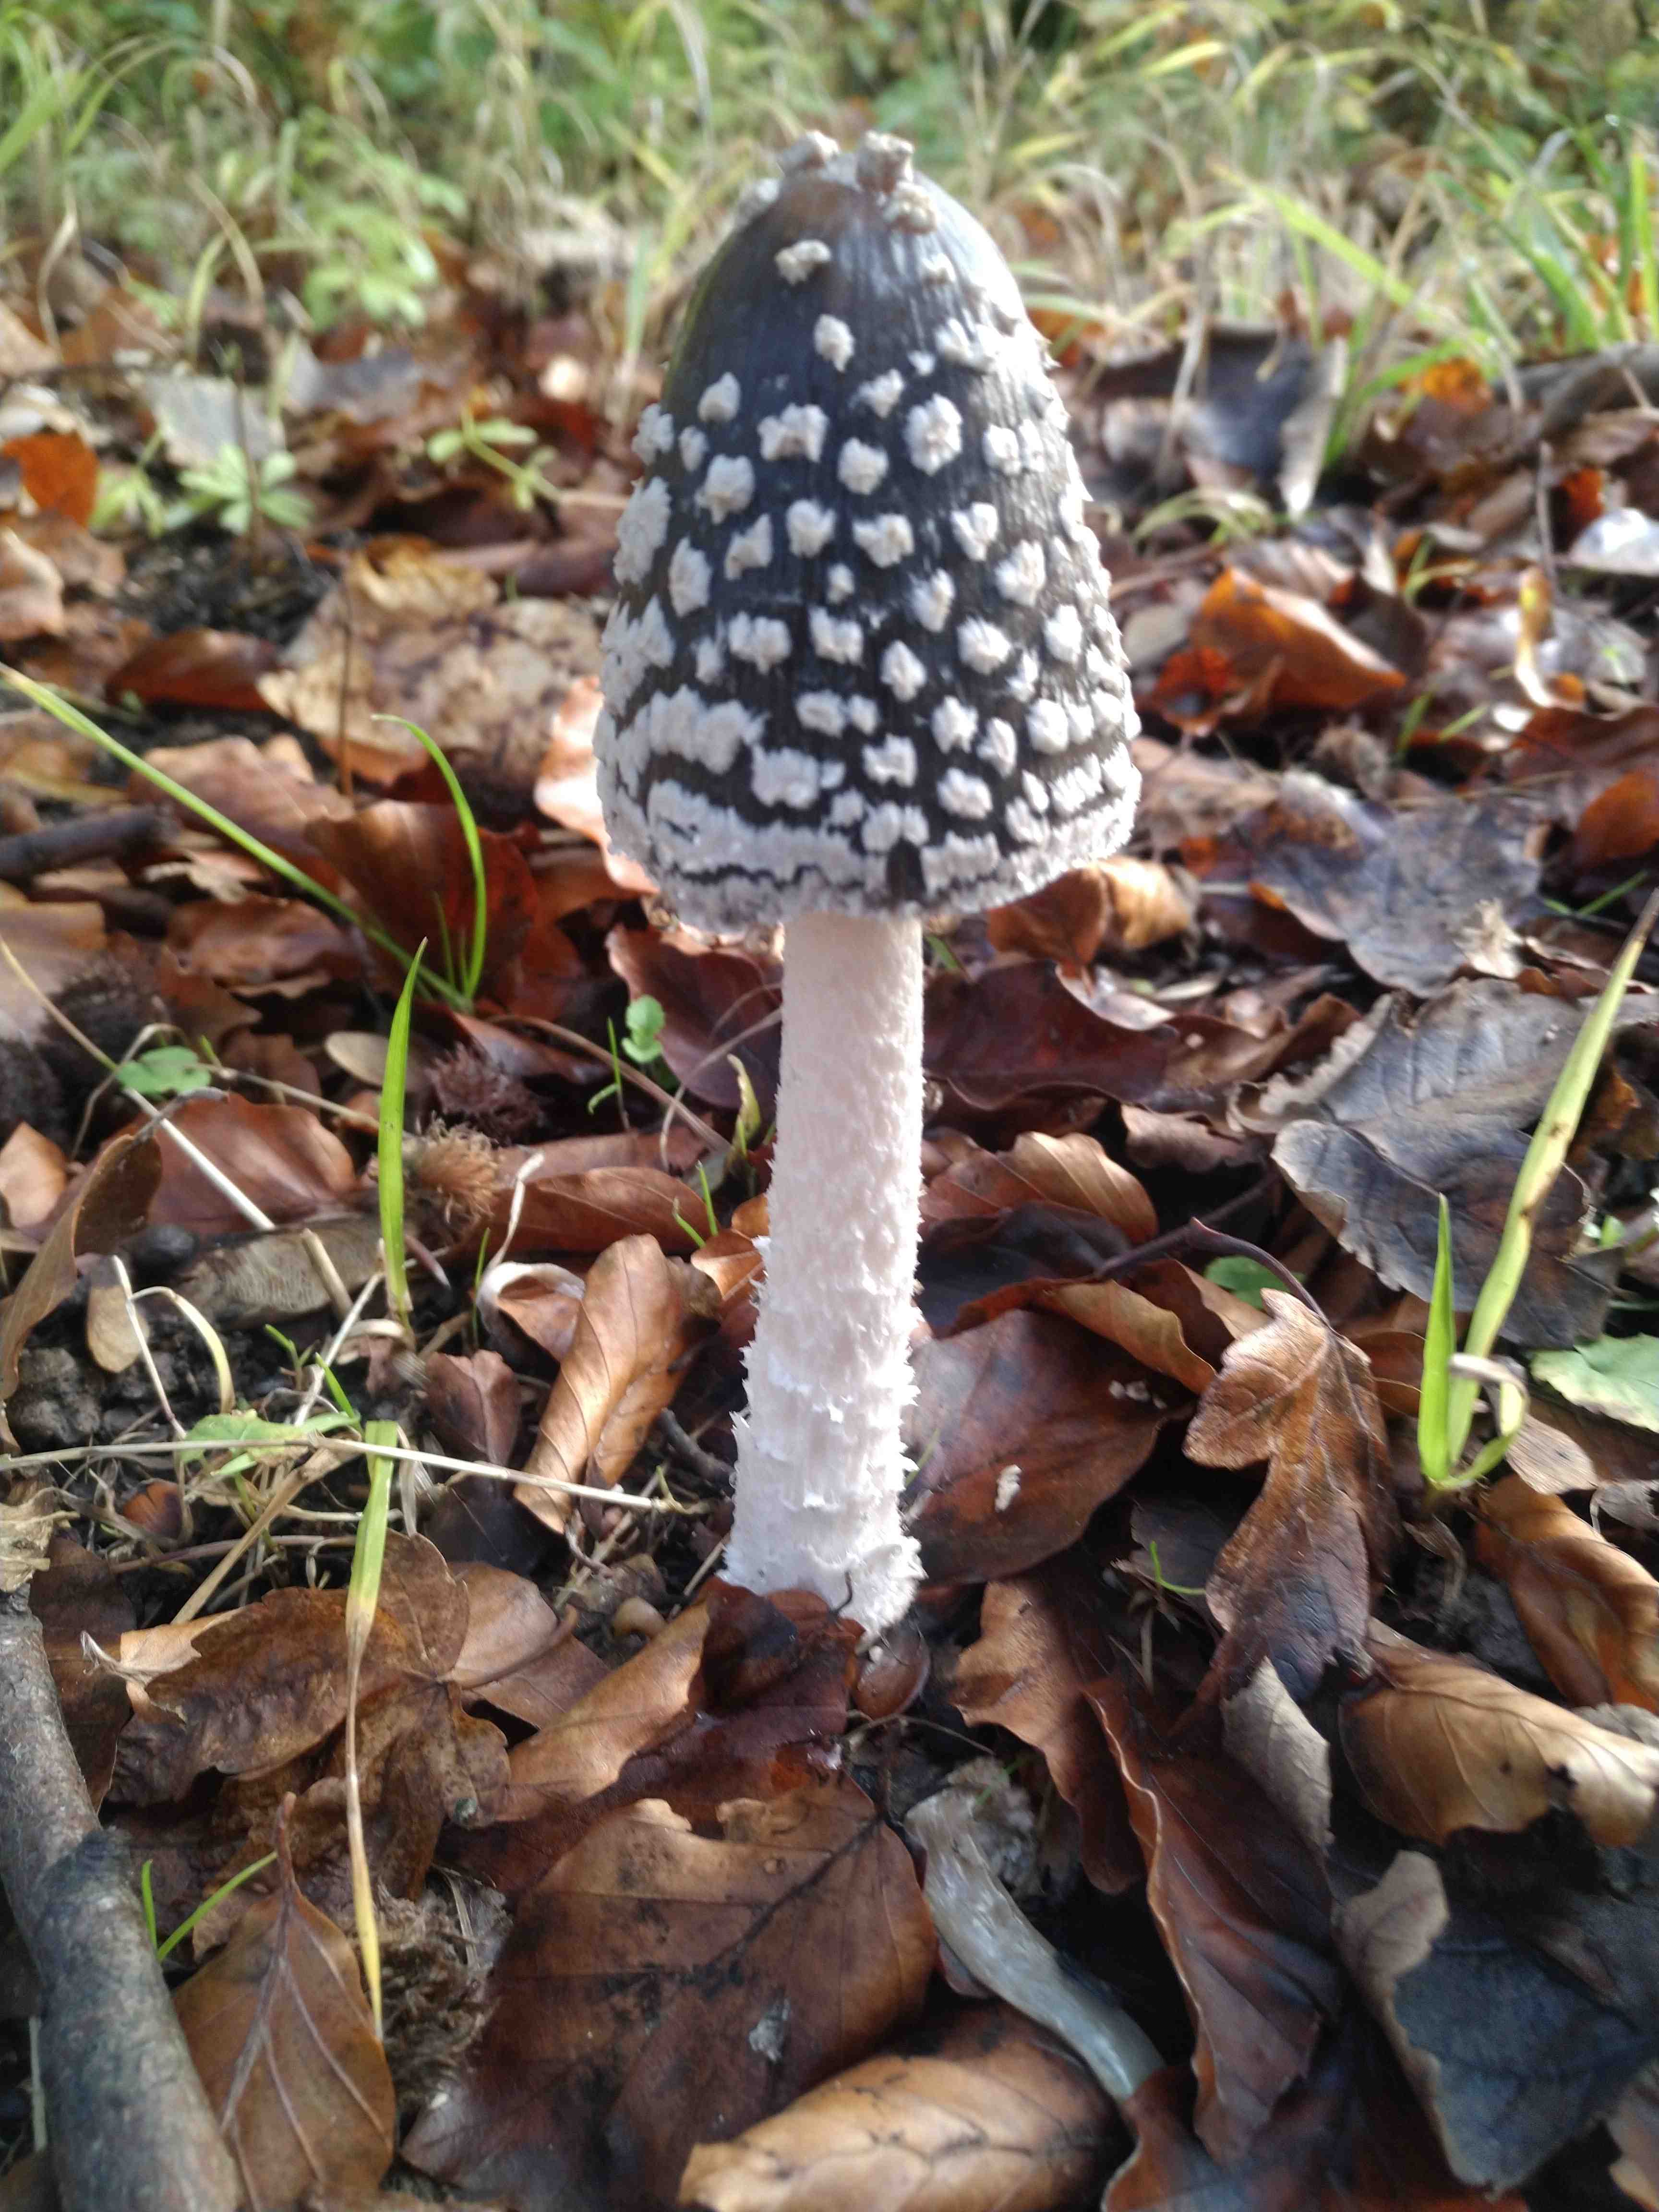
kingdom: Fungi
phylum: Basidiomycota
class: Agaricomycetes
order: Agaricales
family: Psathyrellaceae
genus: Coprinopsis
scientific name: Coprinopsis picacea
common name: skade-blækhat
